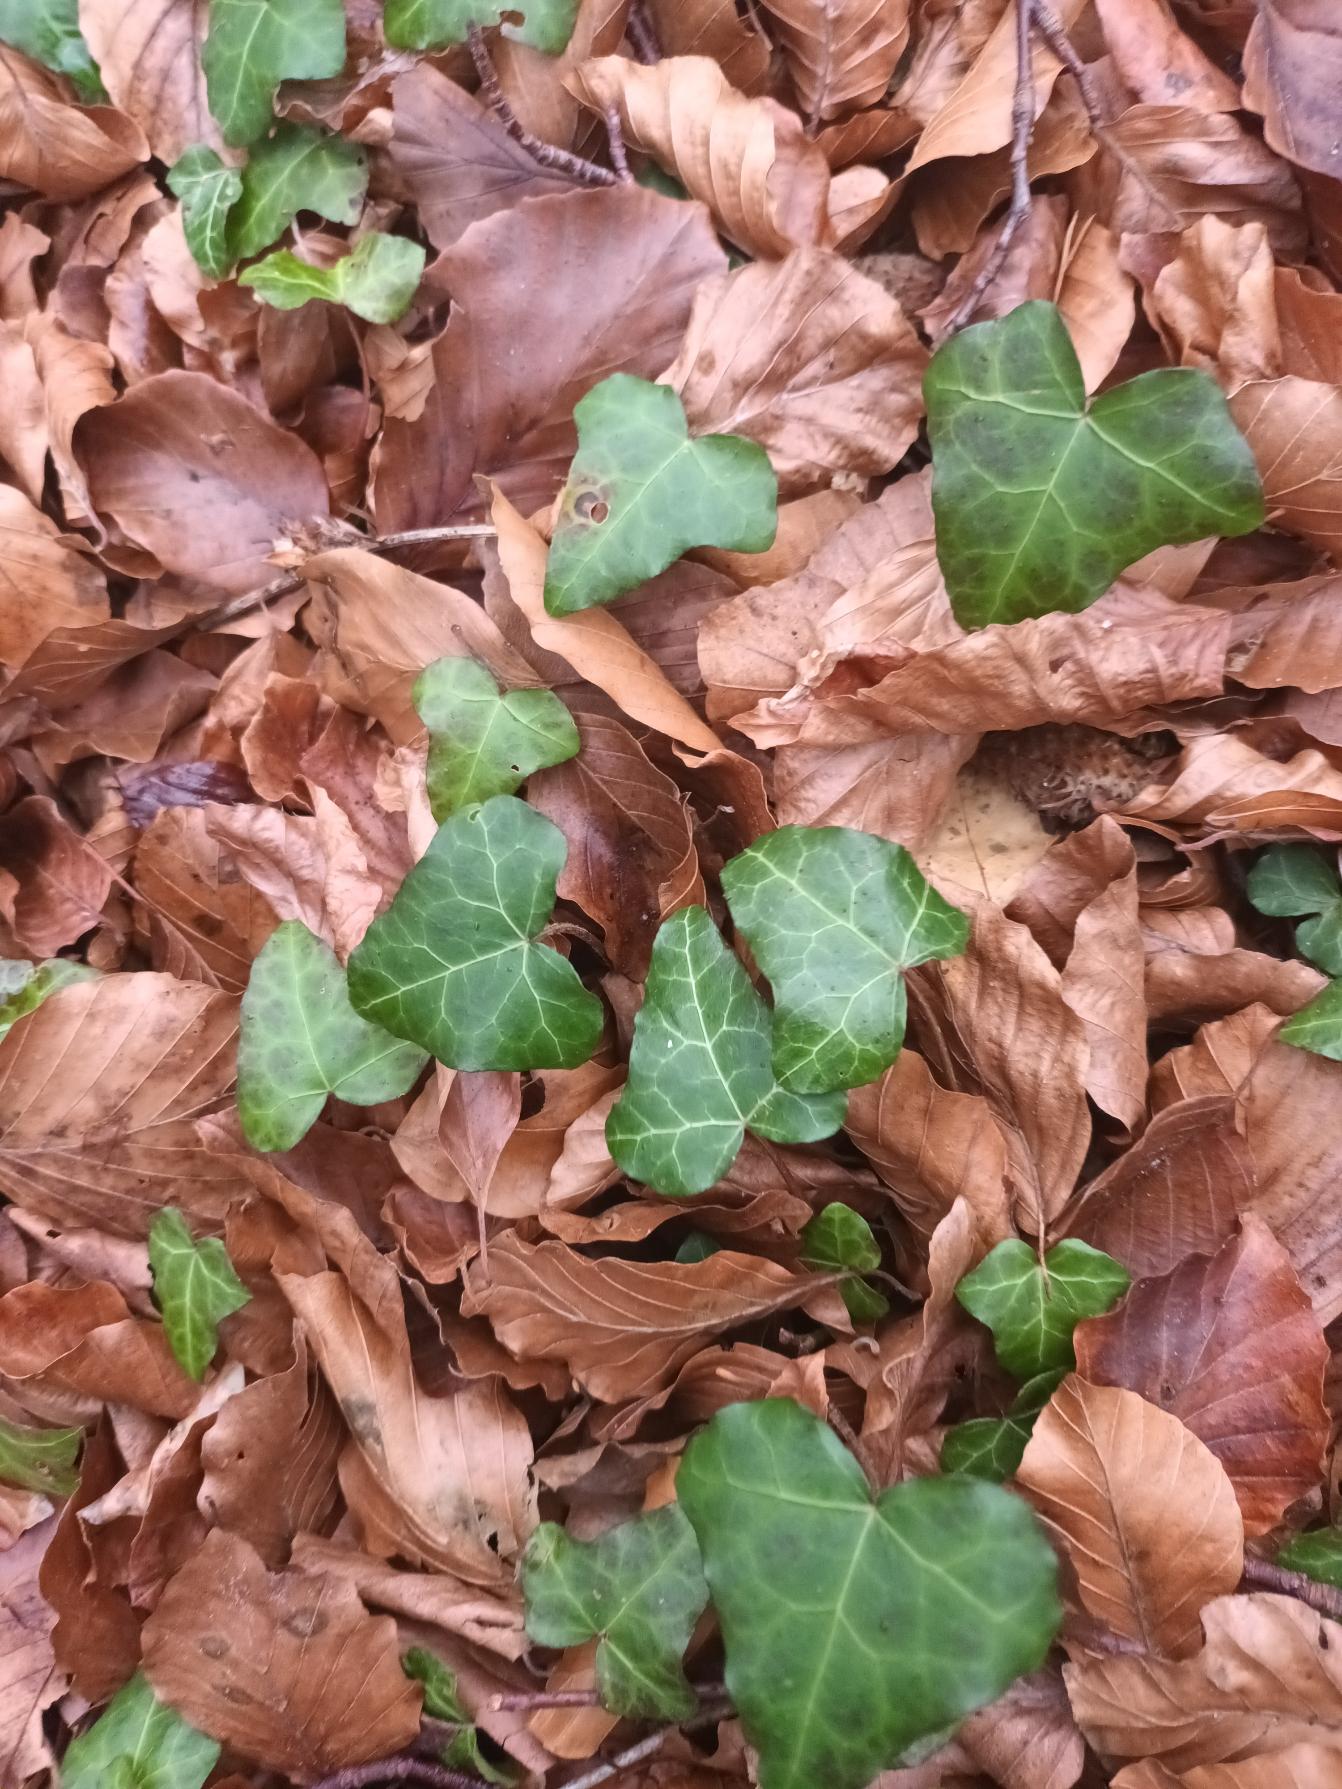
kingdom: Plantae
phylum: Tracheophyta
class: Magnoliopsida
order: Apiales
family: Araliaceae
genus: Hedera
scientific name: Hedera helix
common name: Vedbend
